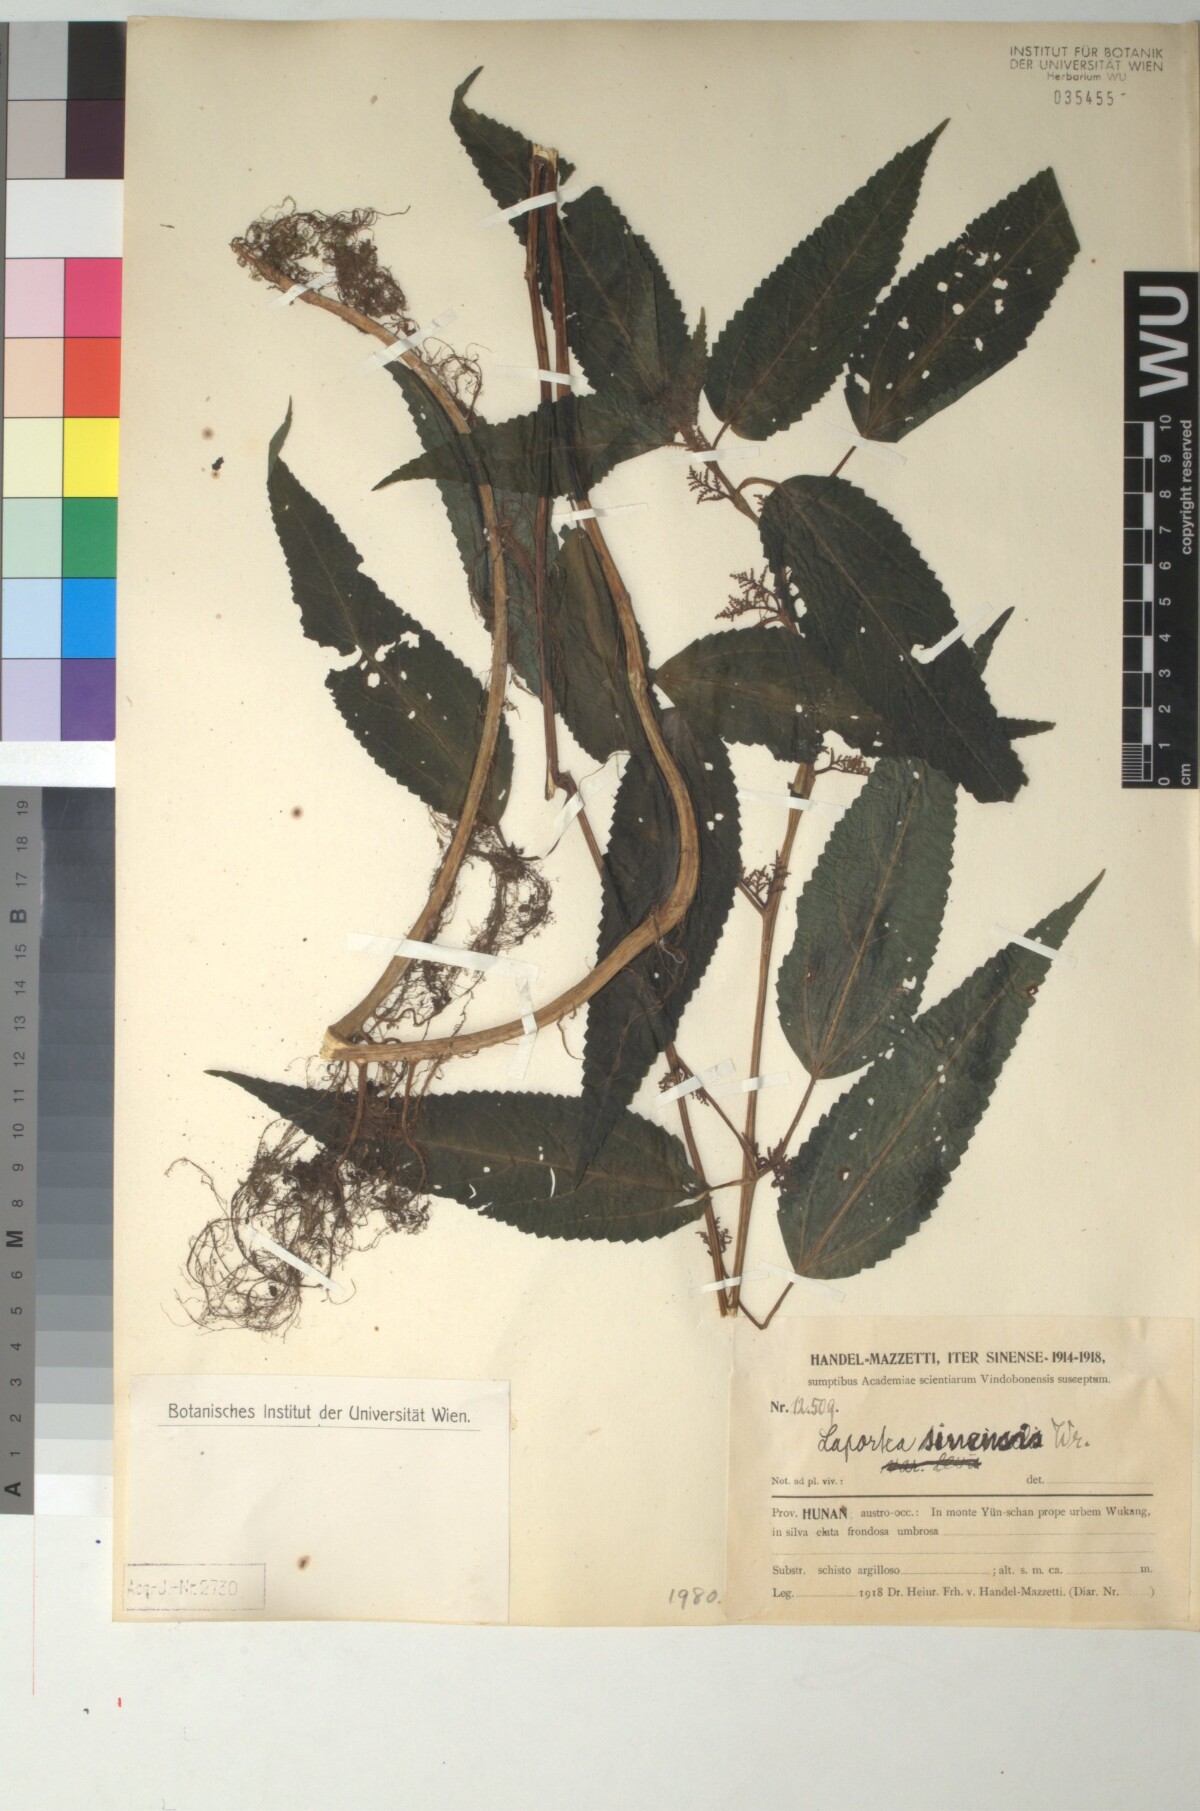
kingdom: Plantae
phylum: Tracheophyta
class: Magnoliopsida
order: Rosales
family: Urticaceae
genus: Laportea
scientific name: Laportea bulbifera
